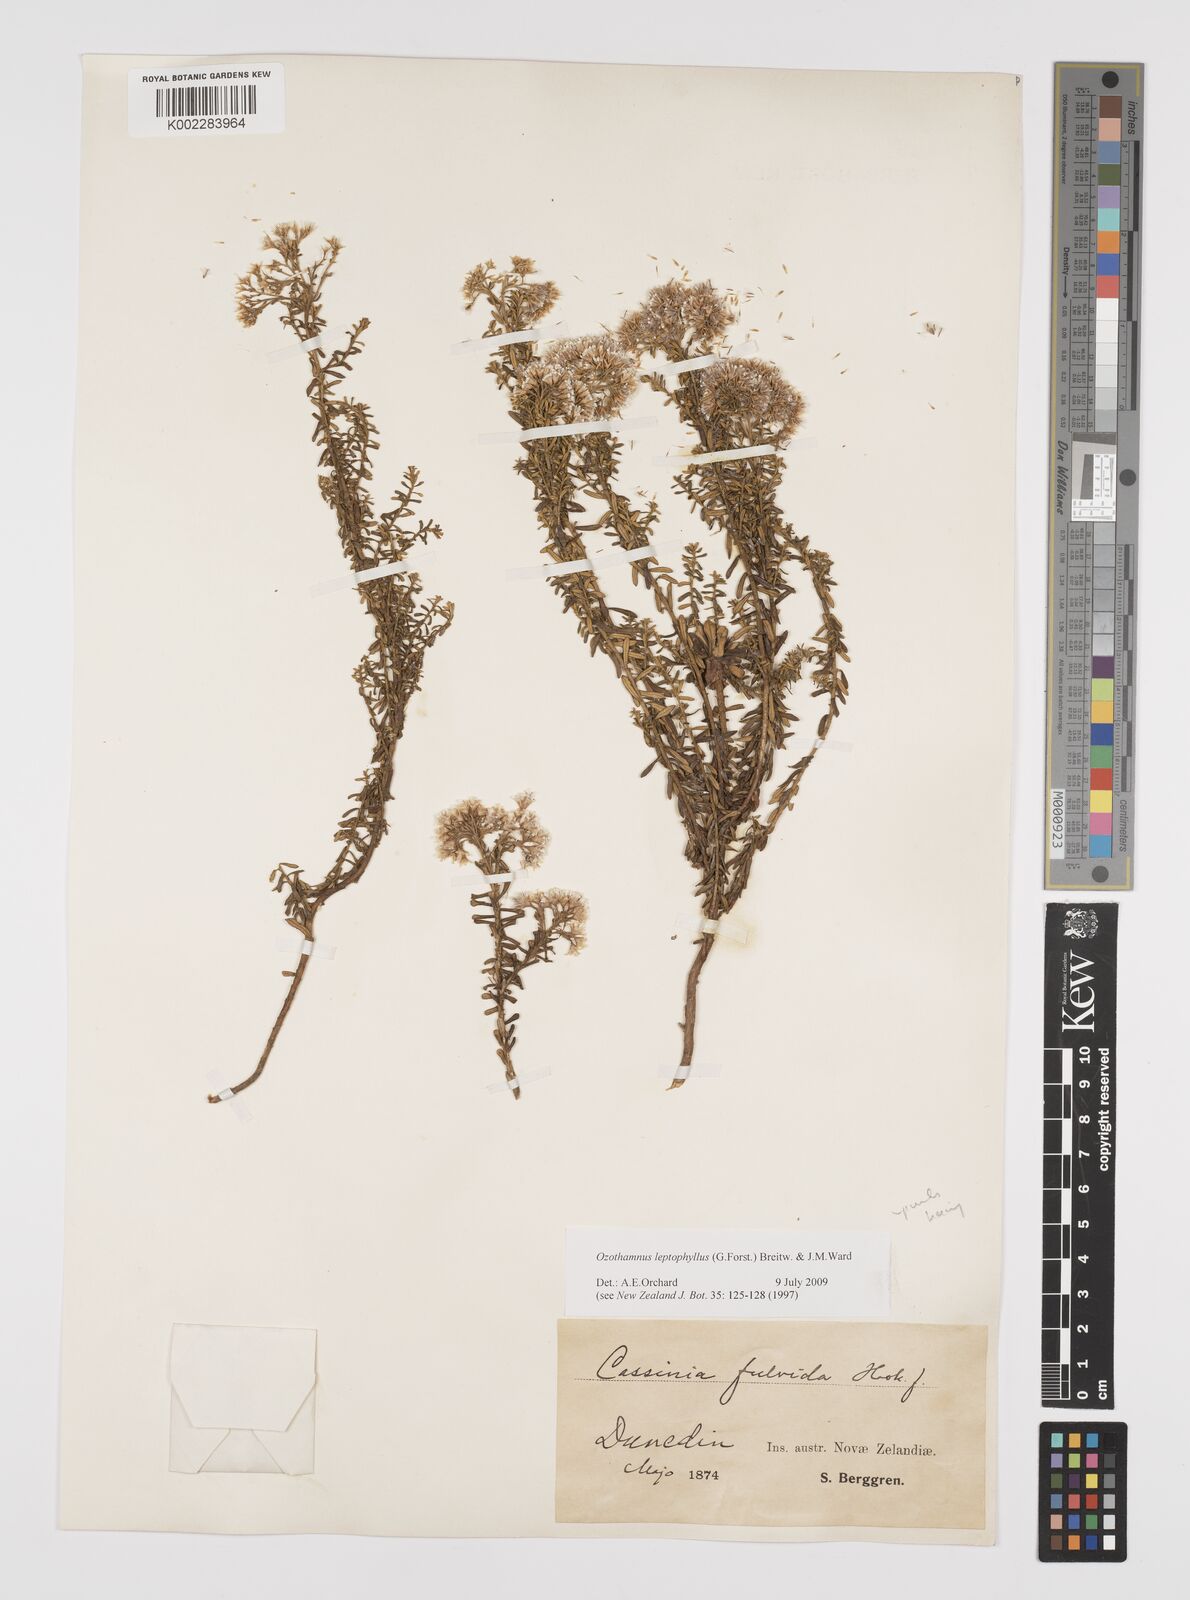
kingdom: Plantae
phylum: Tracheophyta
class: Magnoliopsida
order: Asterales
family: Asteraceae
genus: Ozothamnus
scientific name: Ozothamnus leptophyllus
